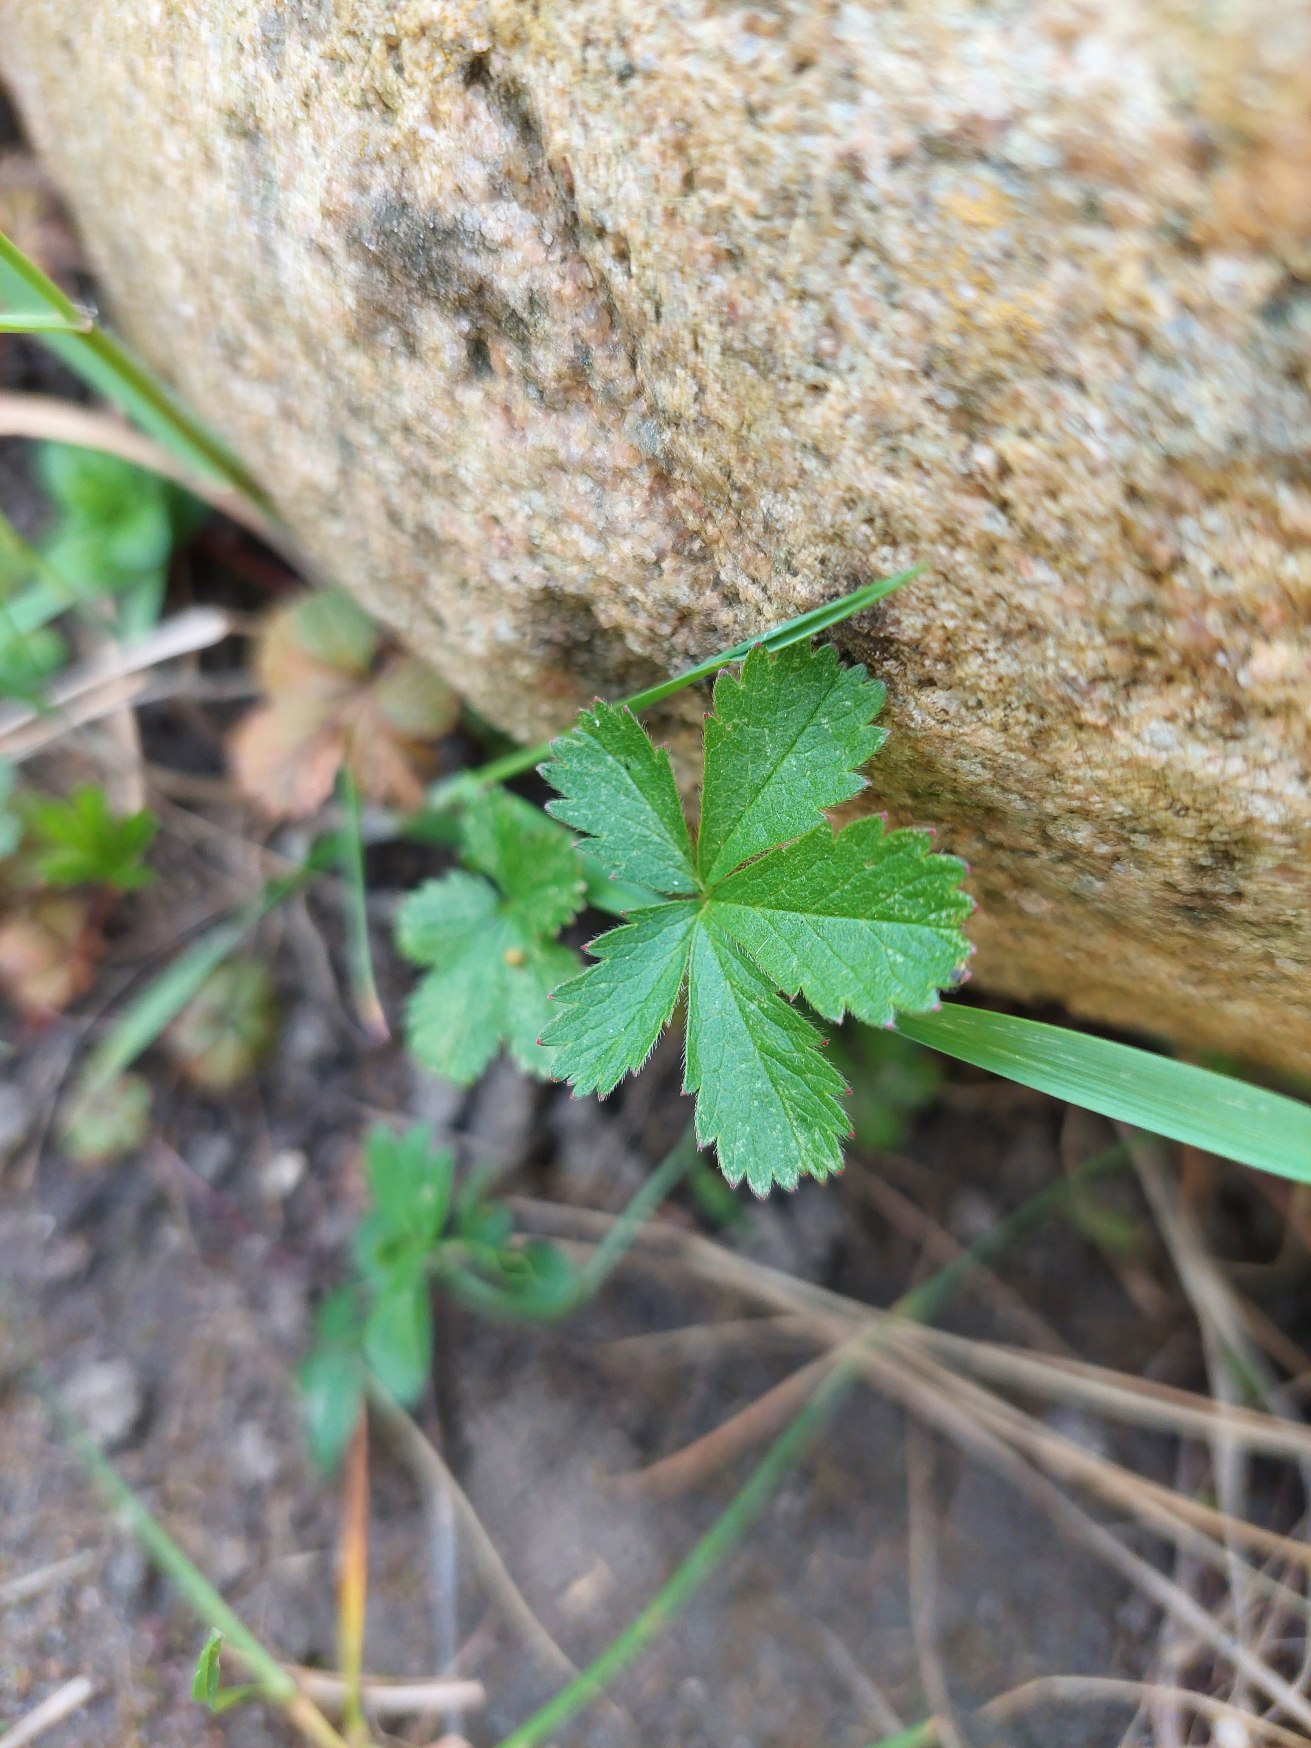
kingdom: Plantae
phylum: Tracheophyta
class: Magnoliopsida
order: Rosales
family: Rosaceae
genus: Potentilla
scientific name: Potentilla reptans
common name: Krybende potentil
